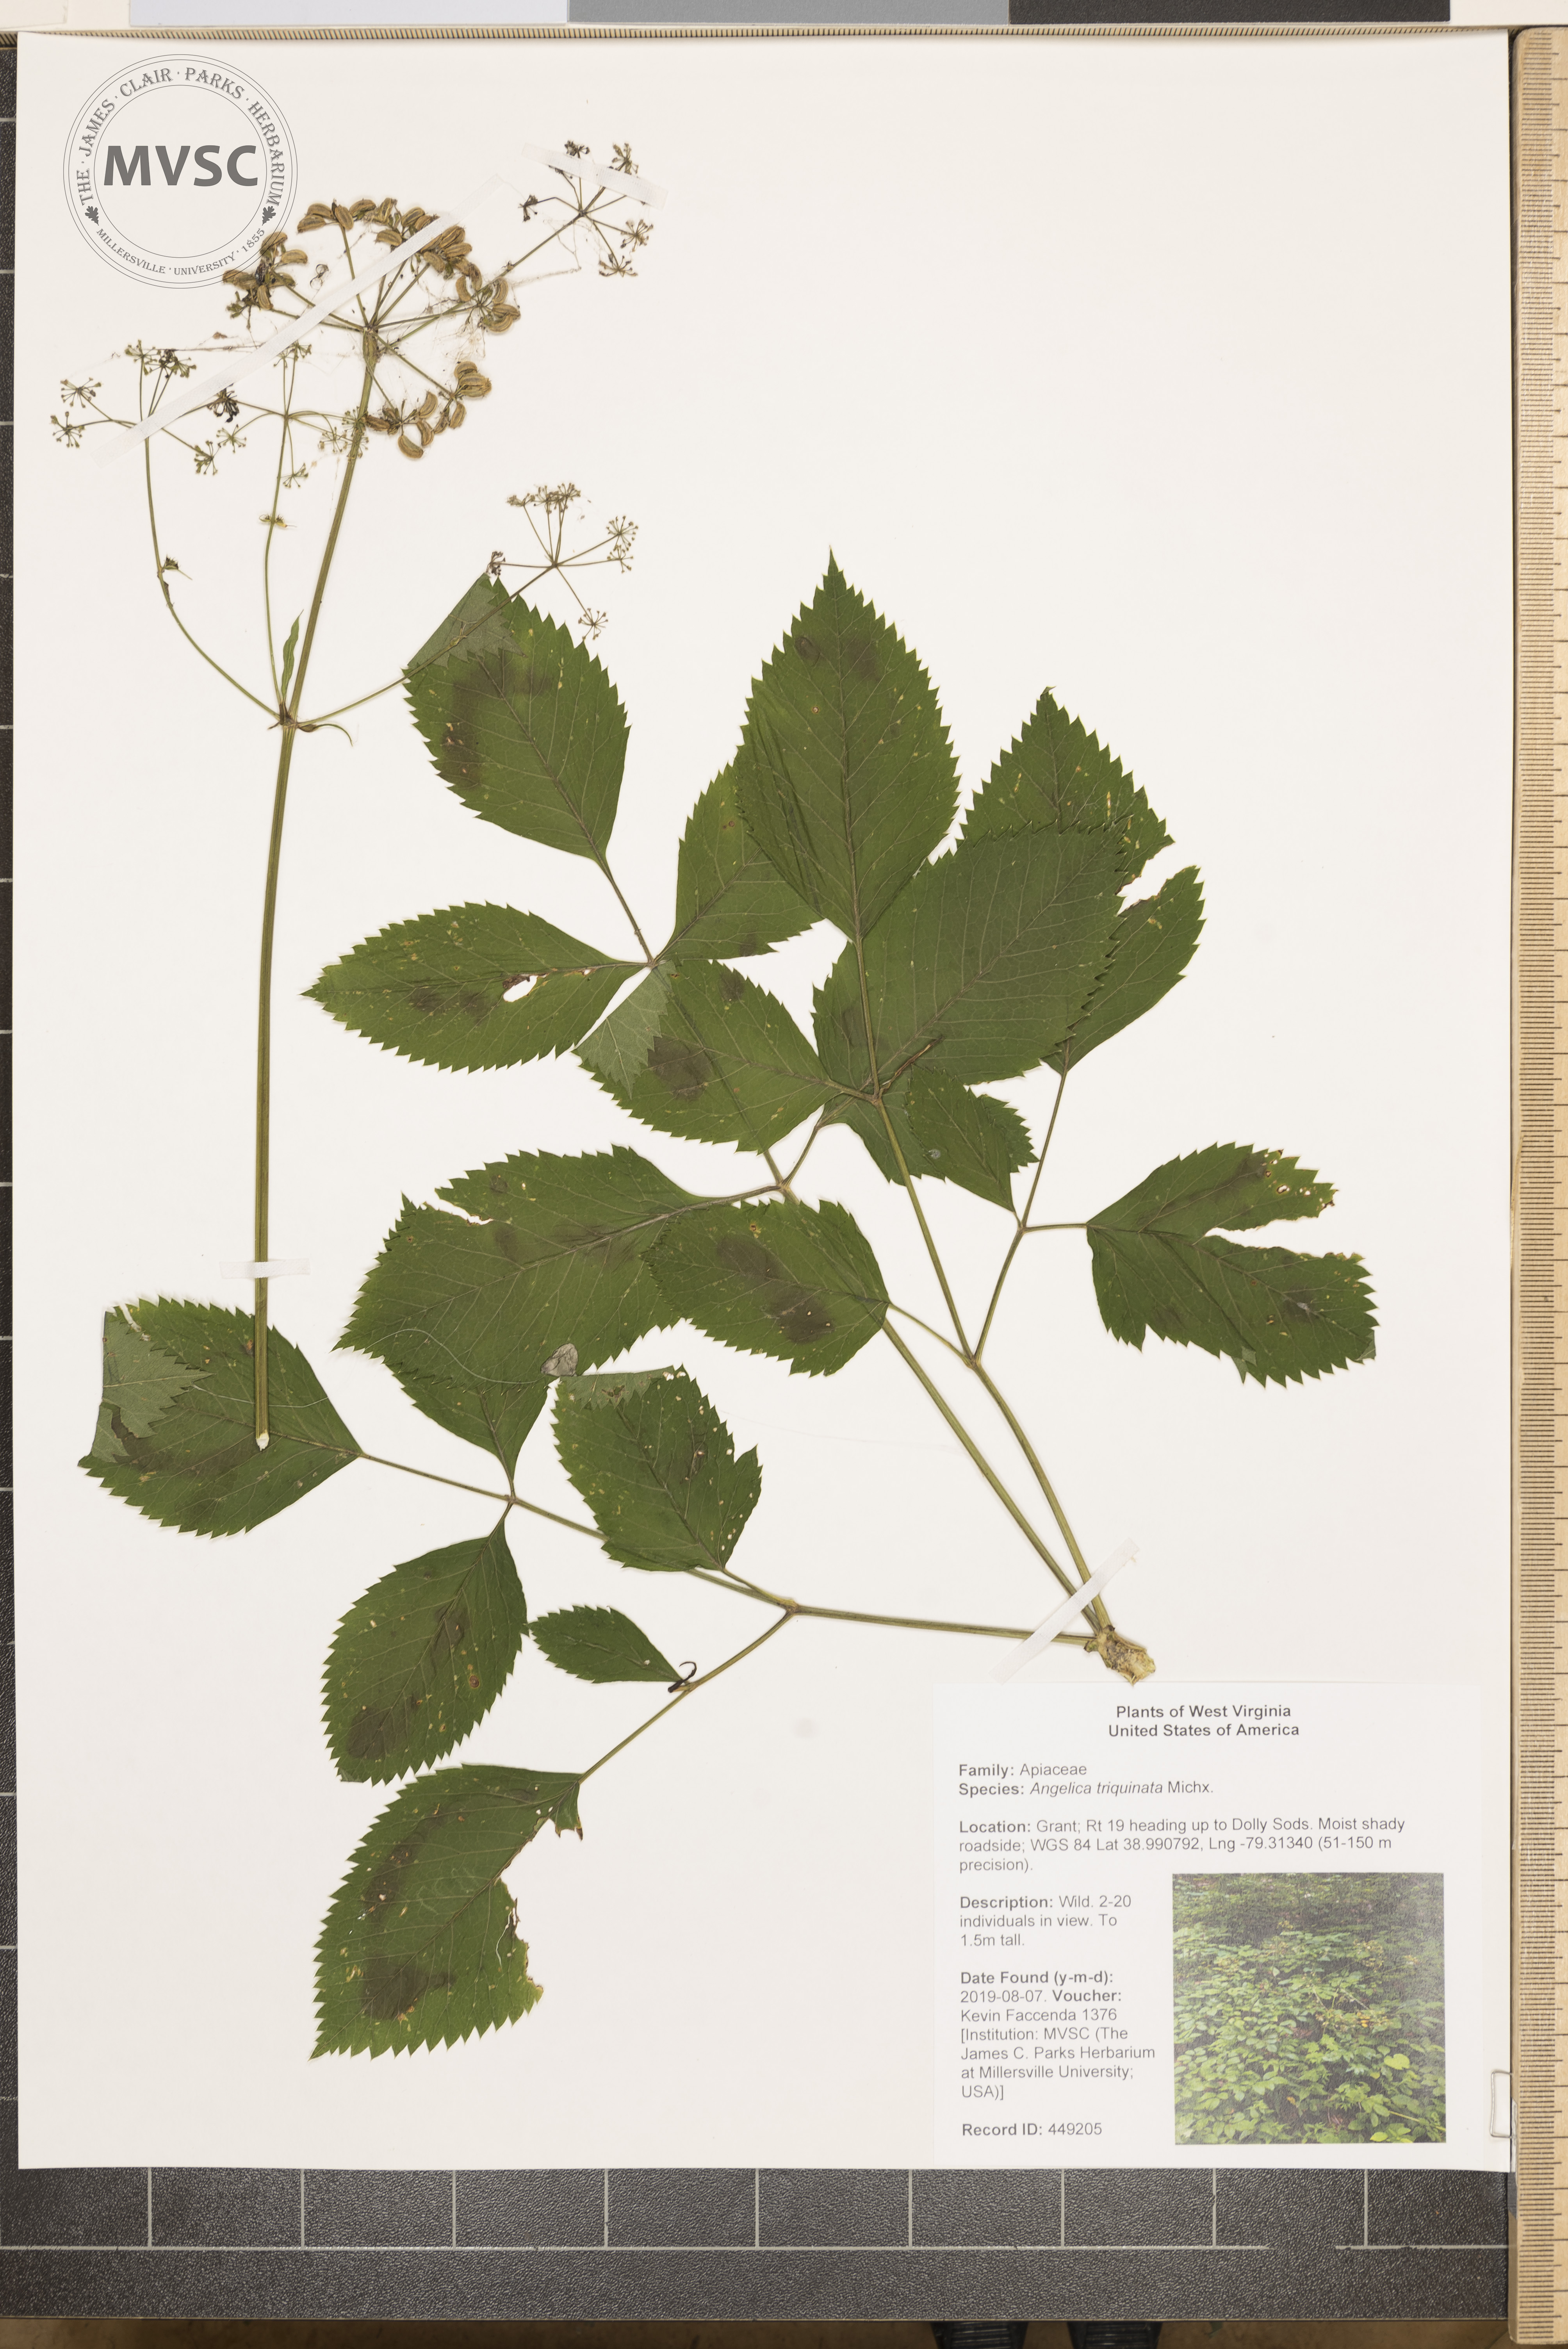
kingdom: Plantae
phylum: Tracheophyta
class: Magnoliopsida
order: Apiales
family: Apiaceae
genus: Angelica
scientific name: Angelica triquinata
